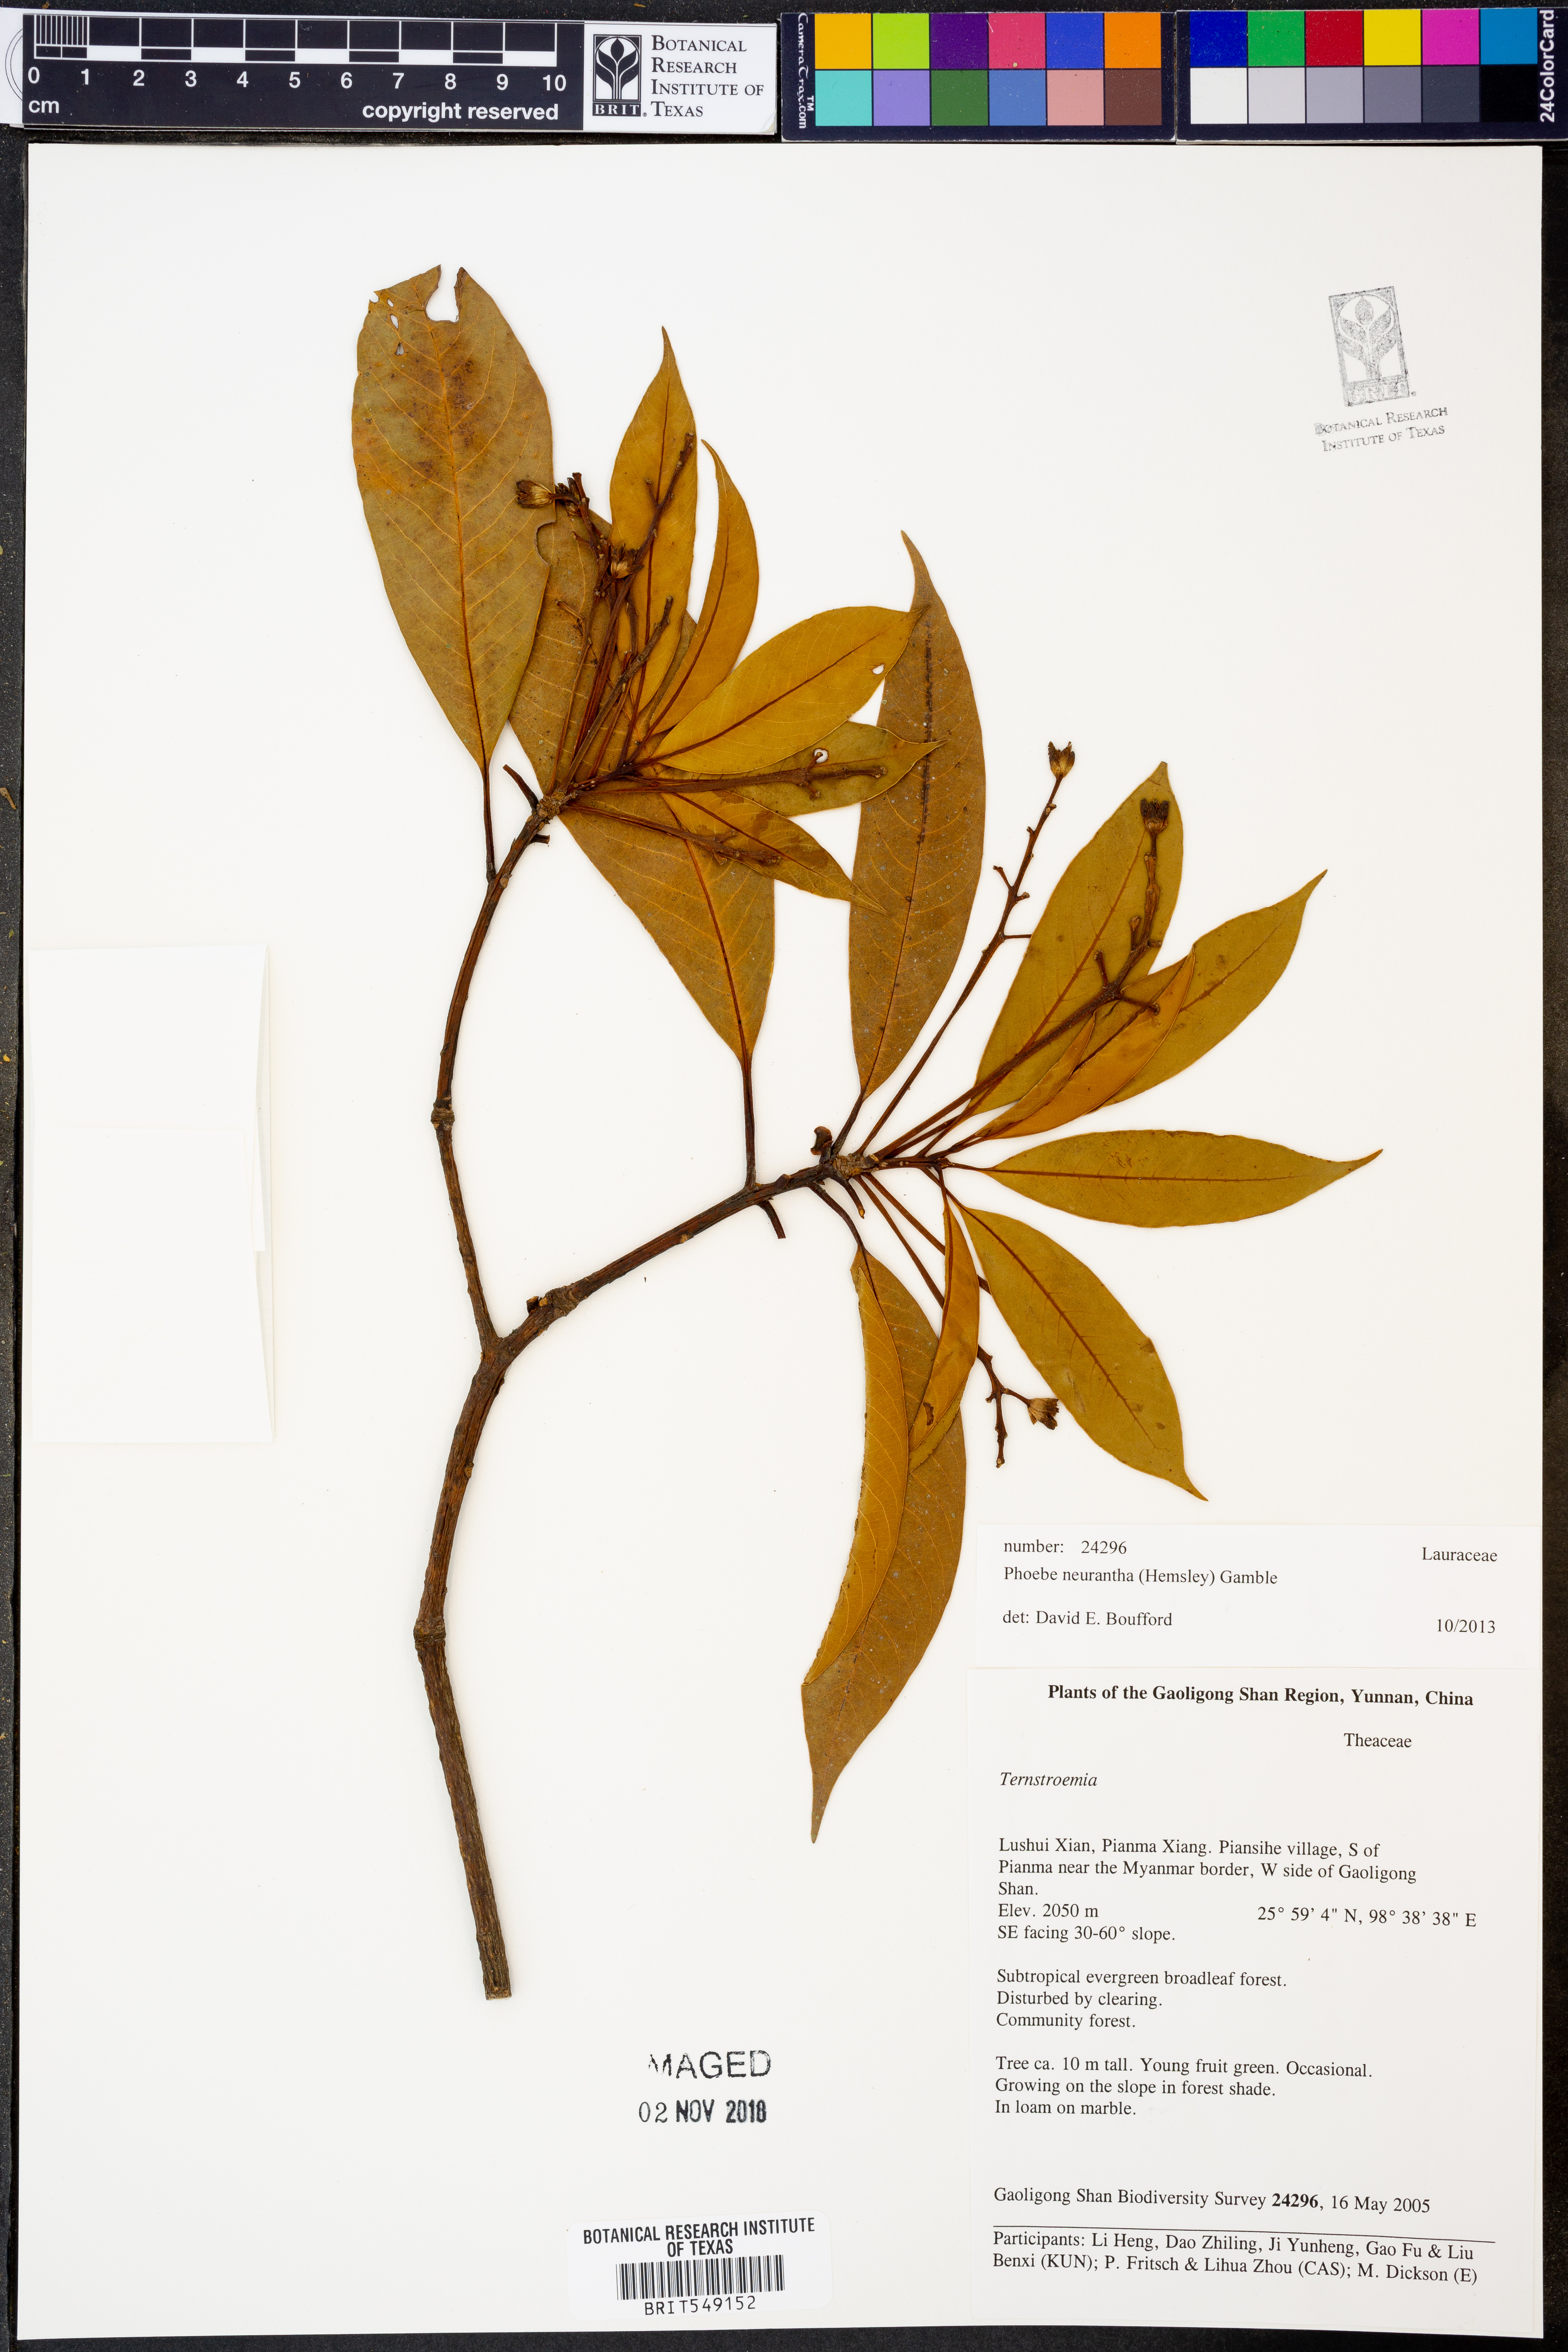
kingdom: Plantae
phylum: Tracheophyta
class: Magnoliopsida
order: Laurales
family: Lauraceae
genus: Phoebe
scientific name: Phoebe neurantha
